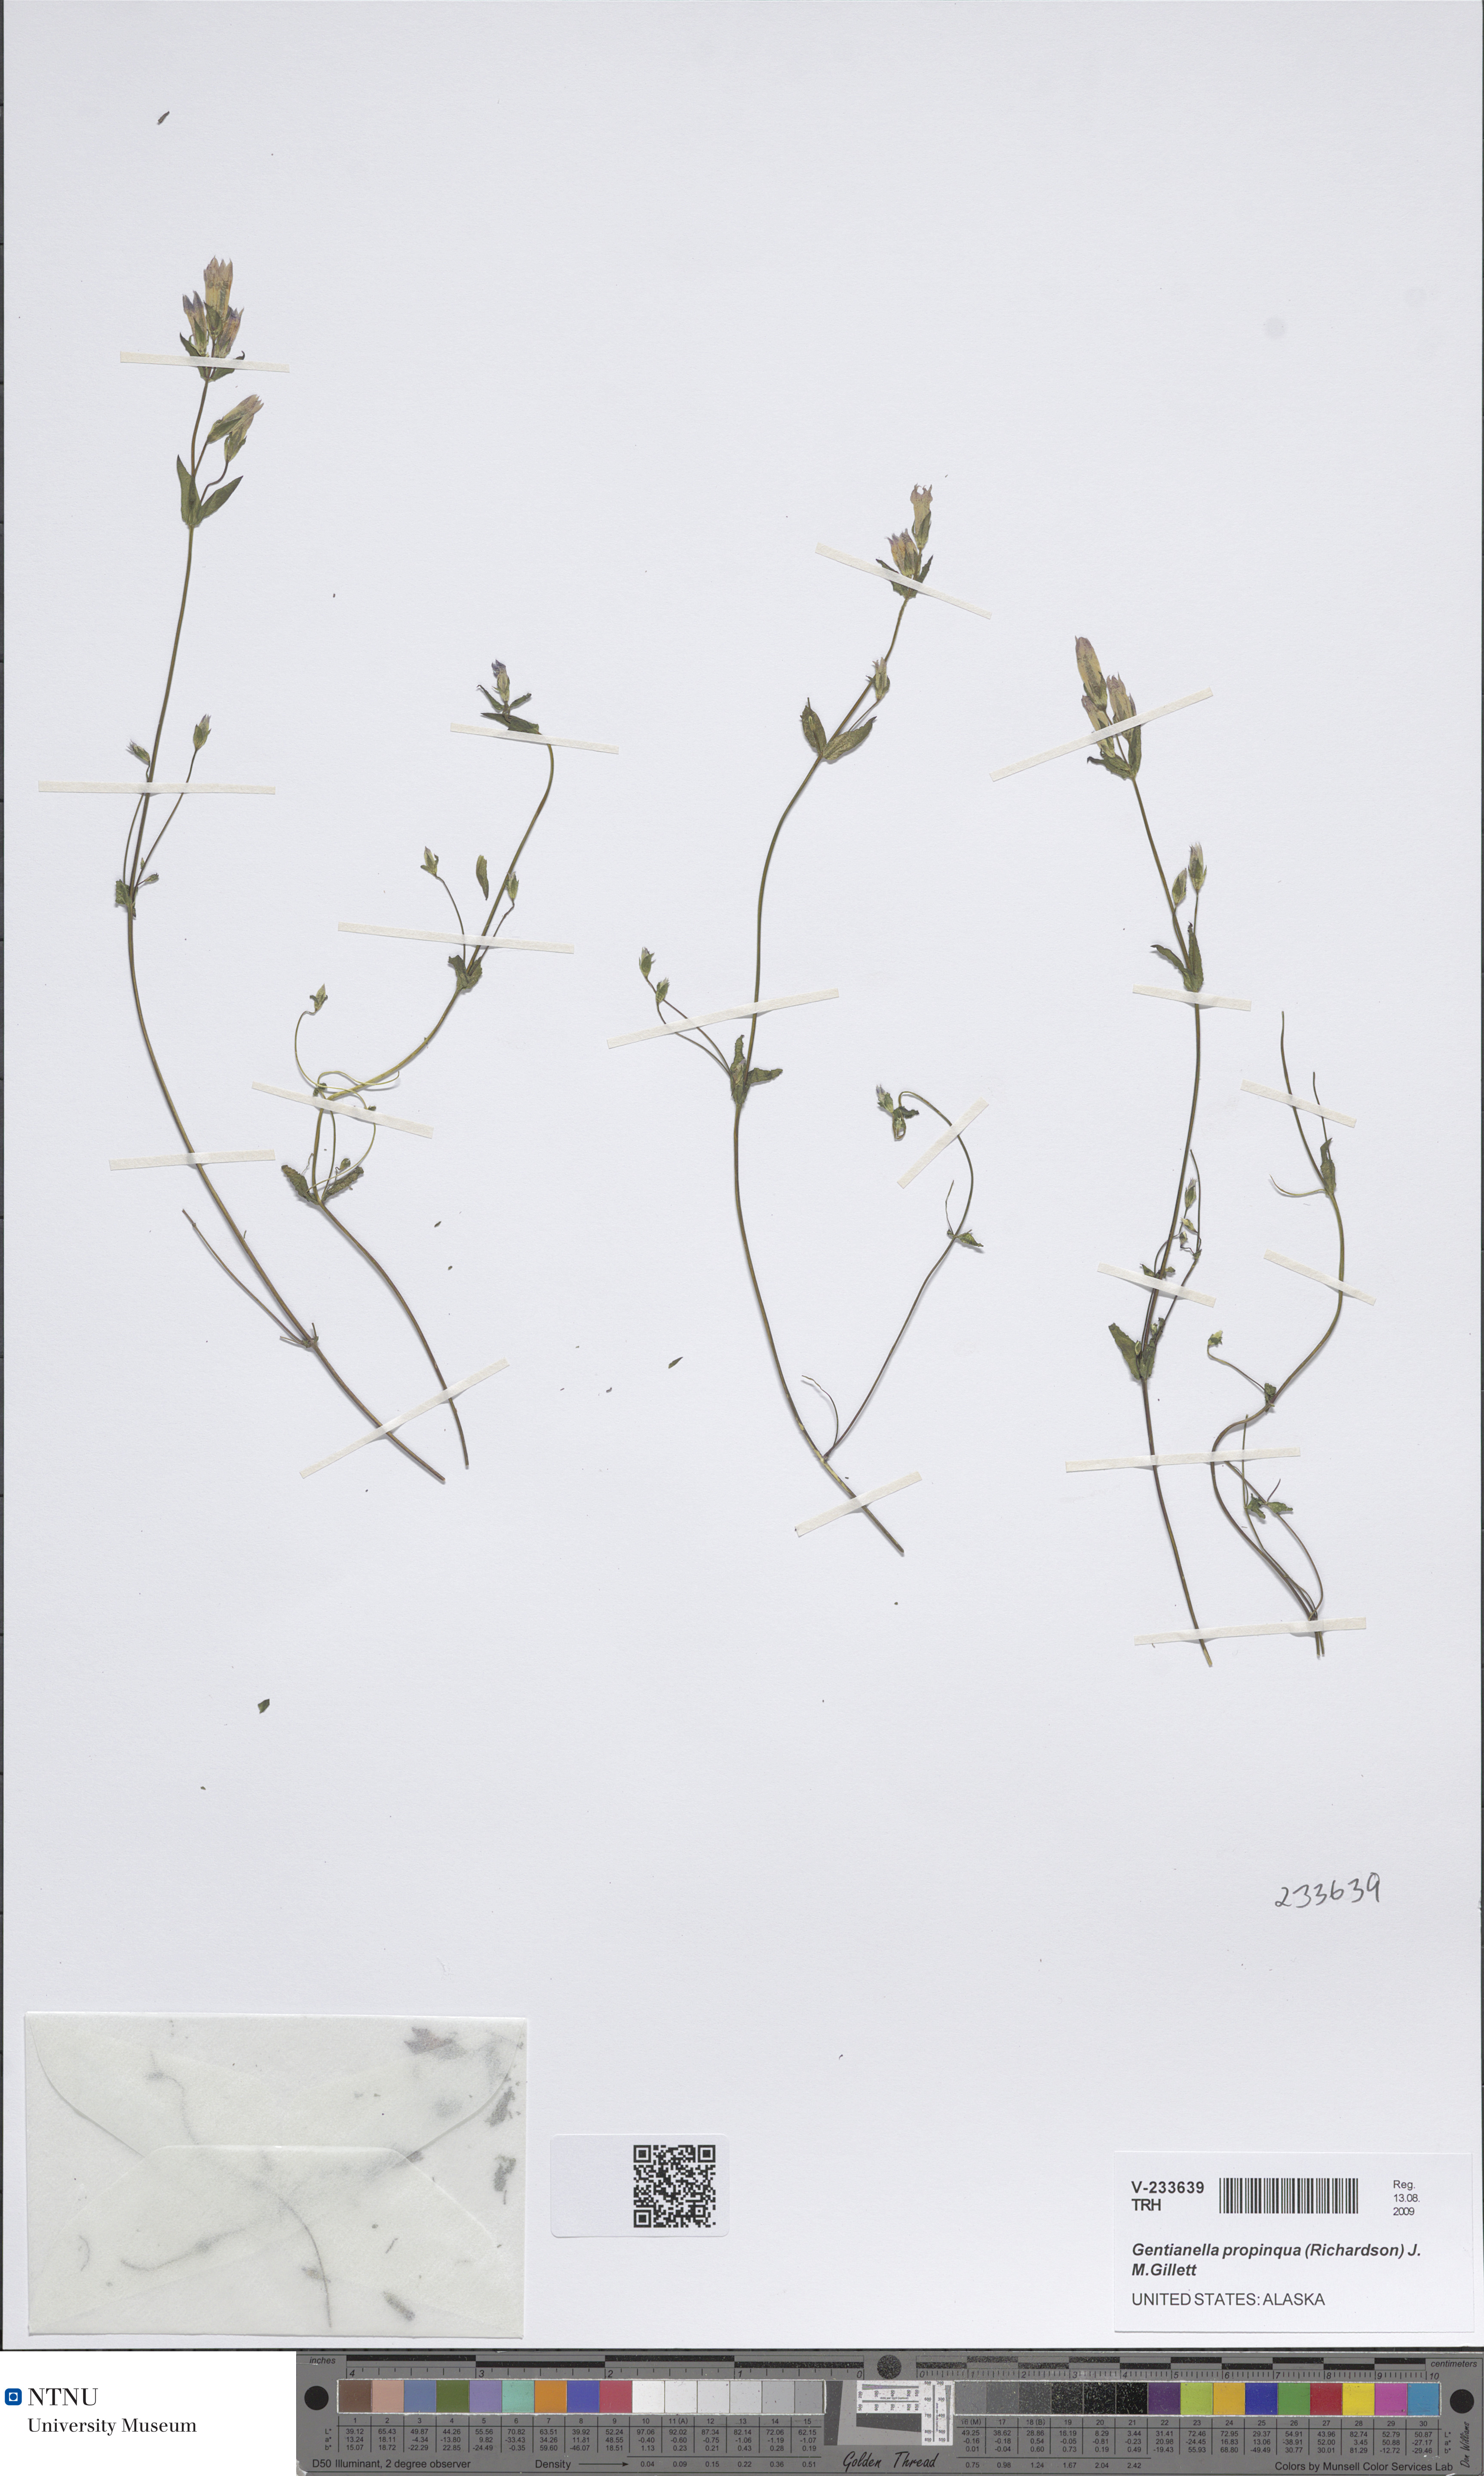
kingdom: Plantae
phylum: Tracheophyta
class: Magnoliopsida
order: Gentianales
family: Gentianaceae
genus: Gentianella
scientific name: Gentianella propinqua
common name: Four-parted dwarf-gentian
